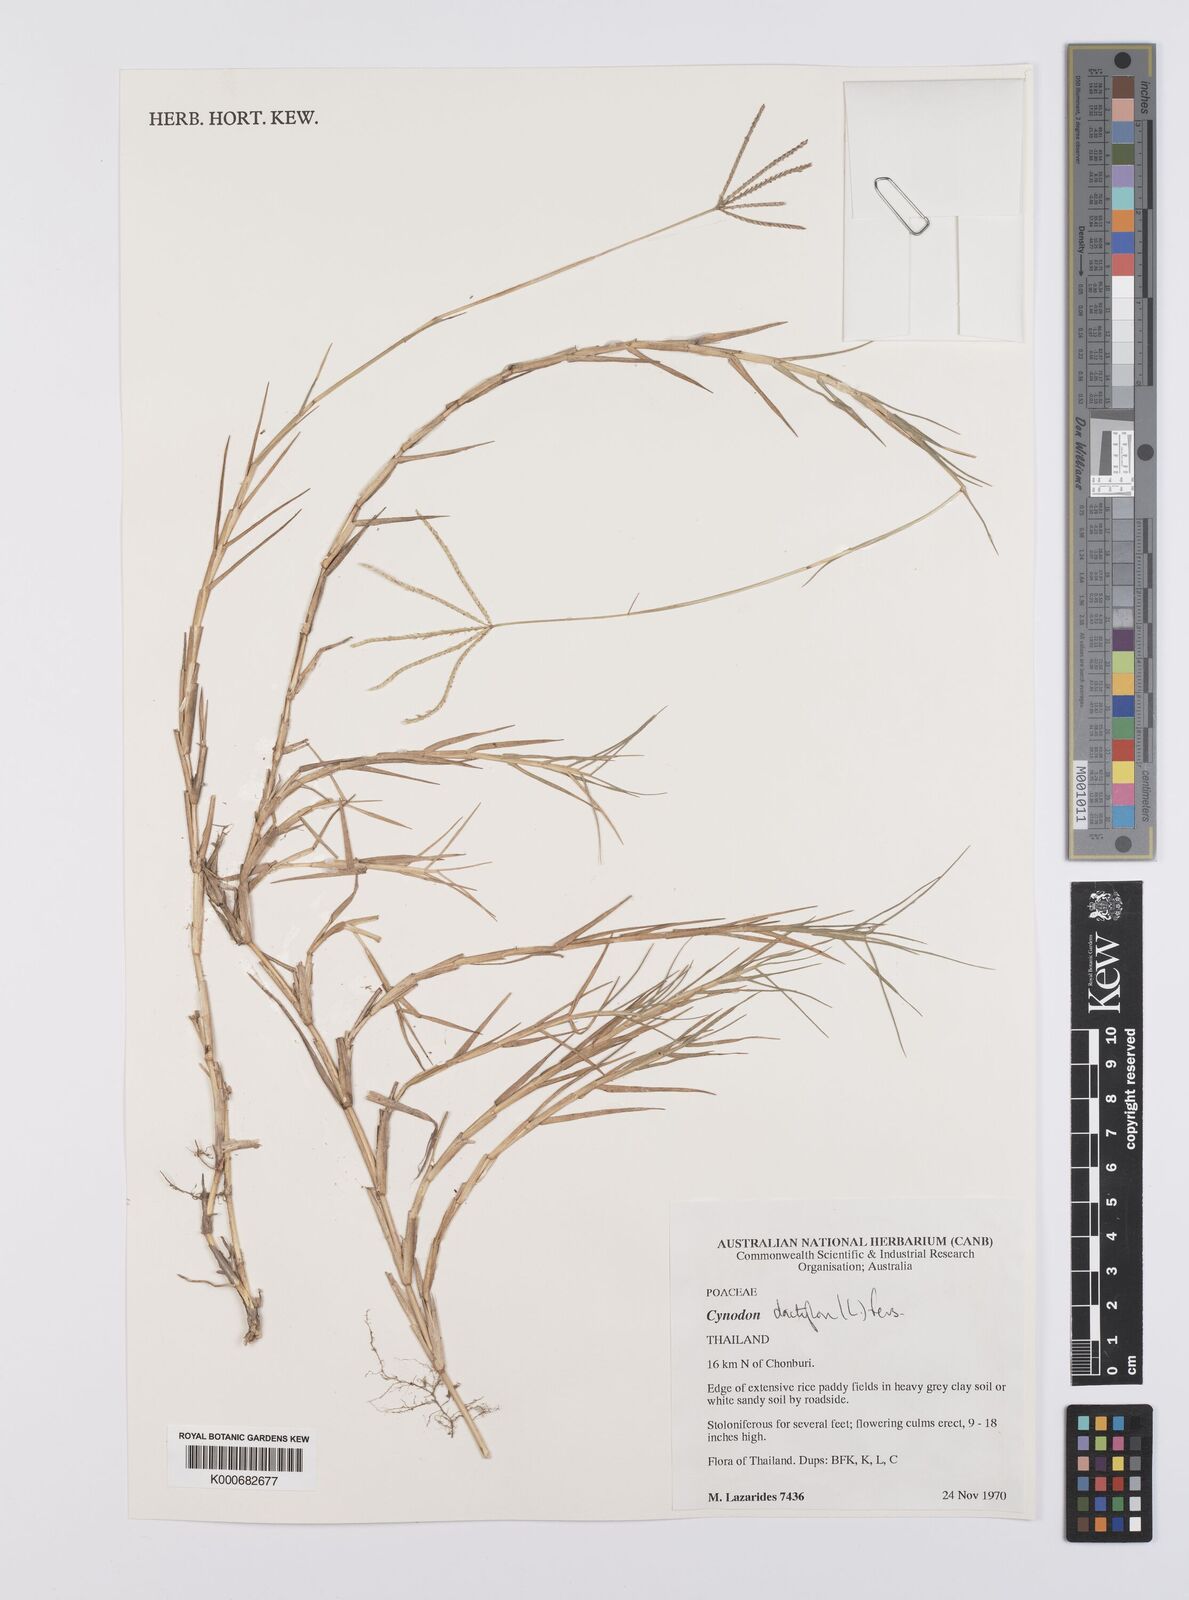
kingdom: Plantae
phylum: Tracheophyta
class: Liliopsida
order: Poales
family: Poaceae
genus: Cynodon
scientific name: Cynodon dactylon
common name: Bermuda grass
